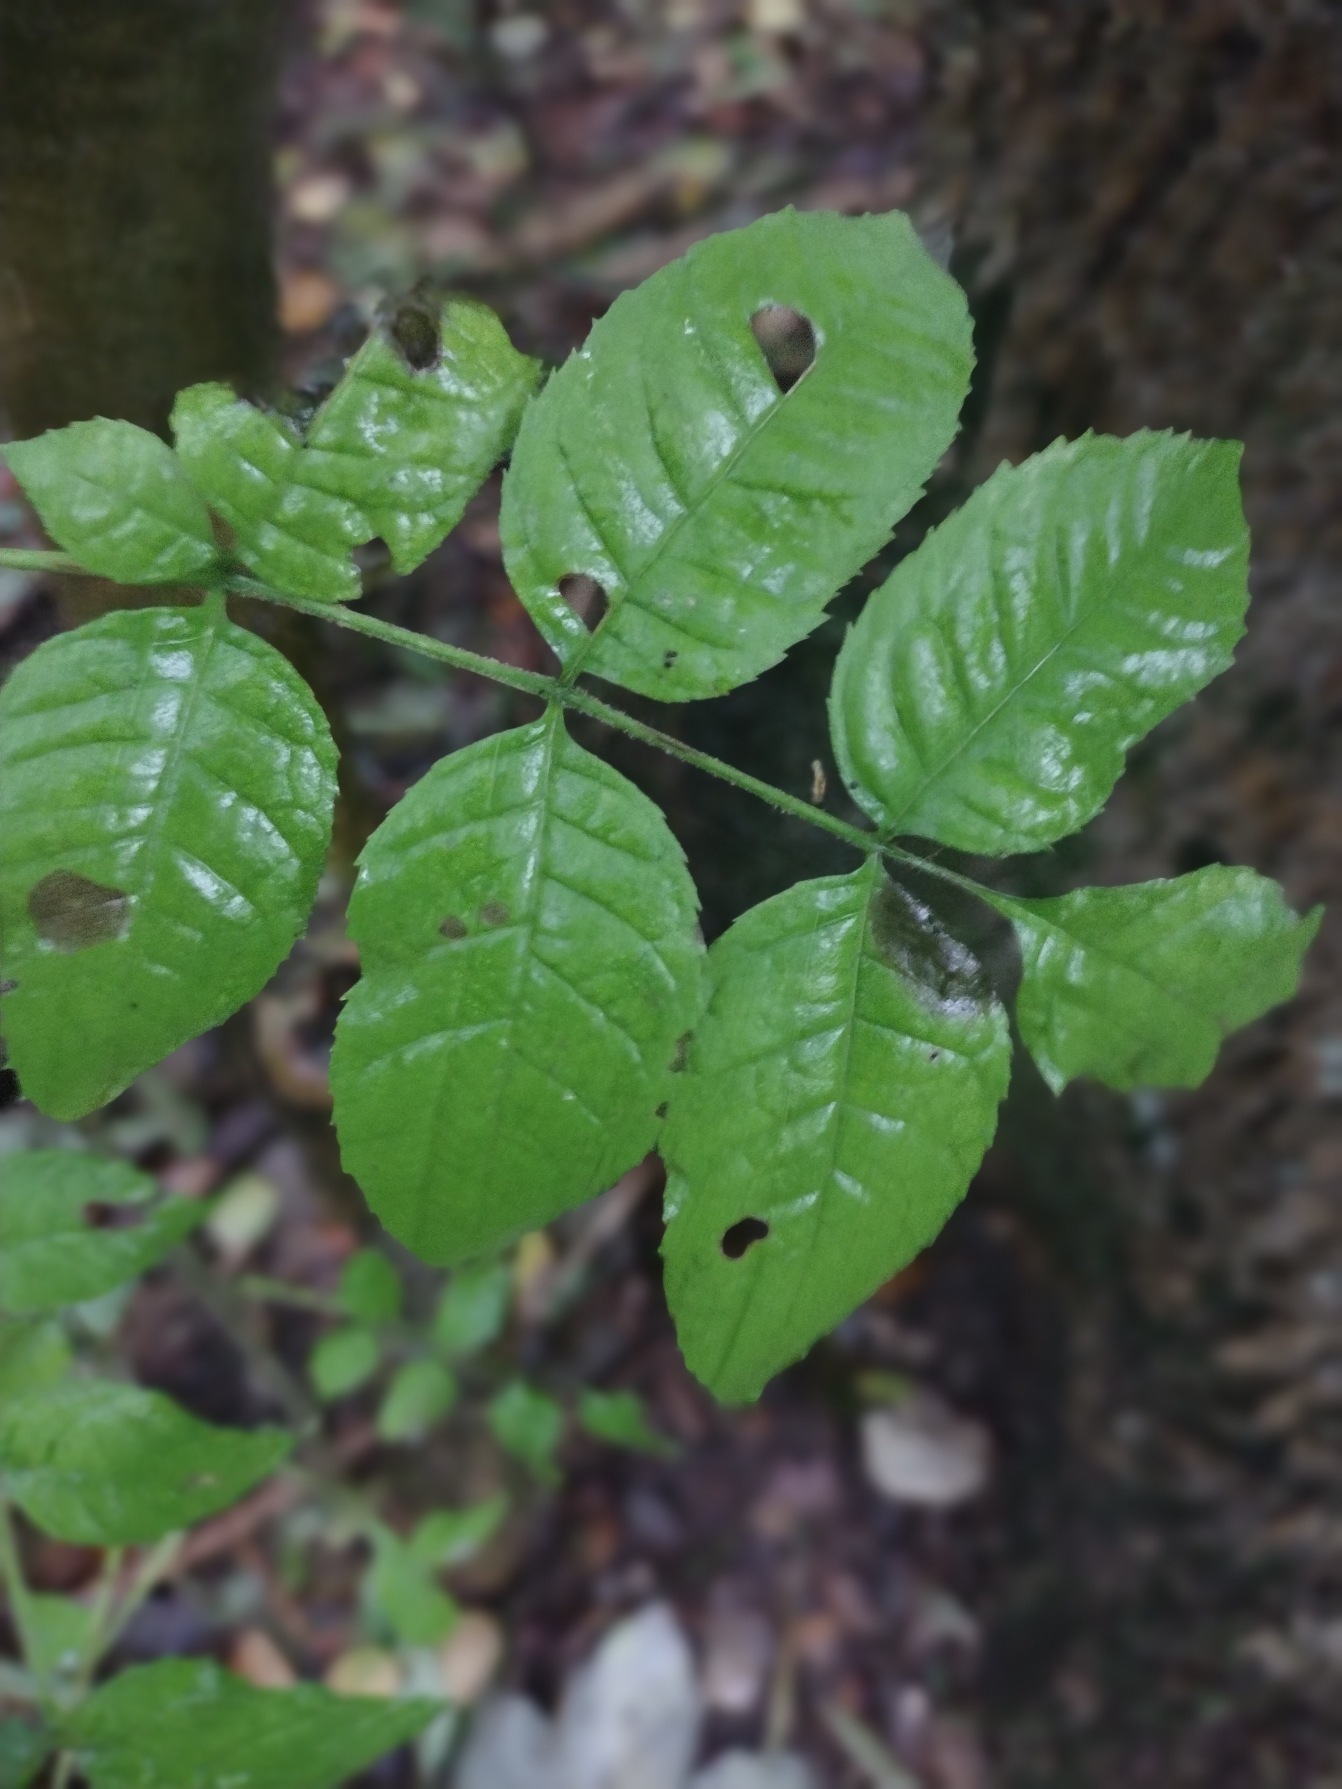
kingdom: Plantae
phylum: Tracheophyta
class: Magnoliopsida
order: Lamiales
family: Oleaceae
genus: Fraxinus
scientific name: Fraxinus excelsior
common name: Ask
